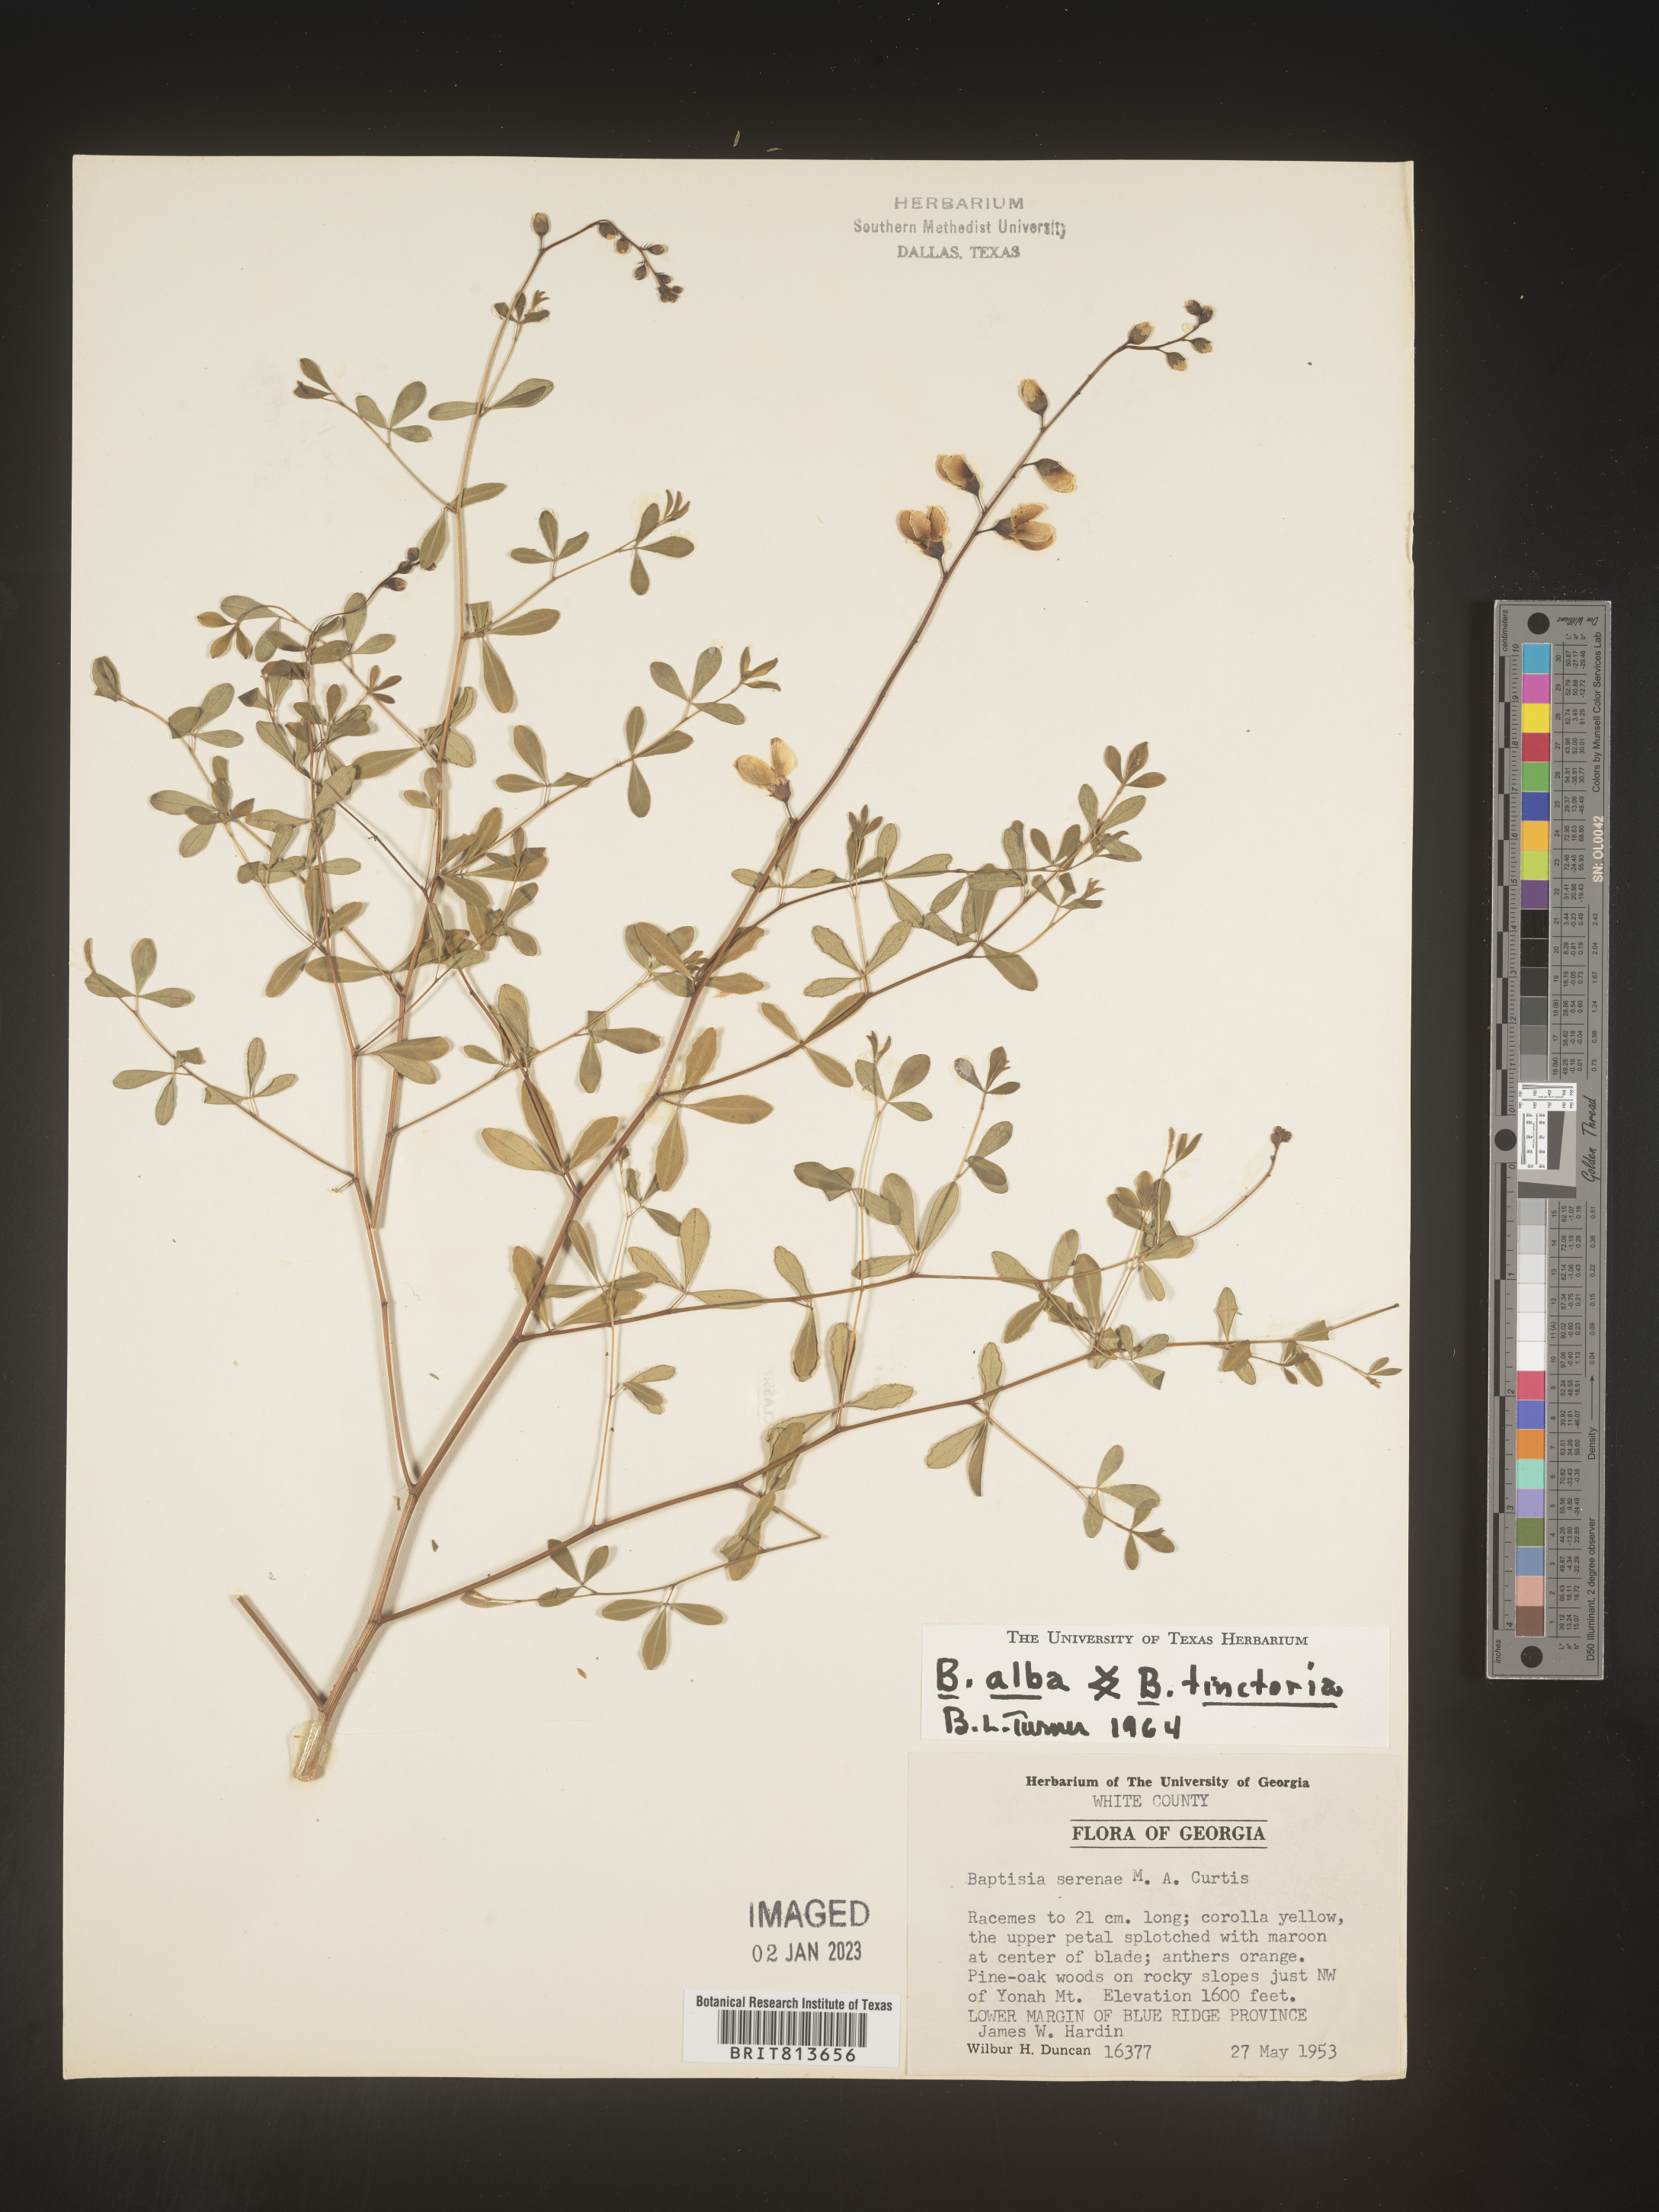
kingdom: Plantae
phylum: Tracheophyta
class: Magnoliopsida
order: Fabales
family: Fabaceae
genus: Baptisia
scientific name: Baptisia alba
